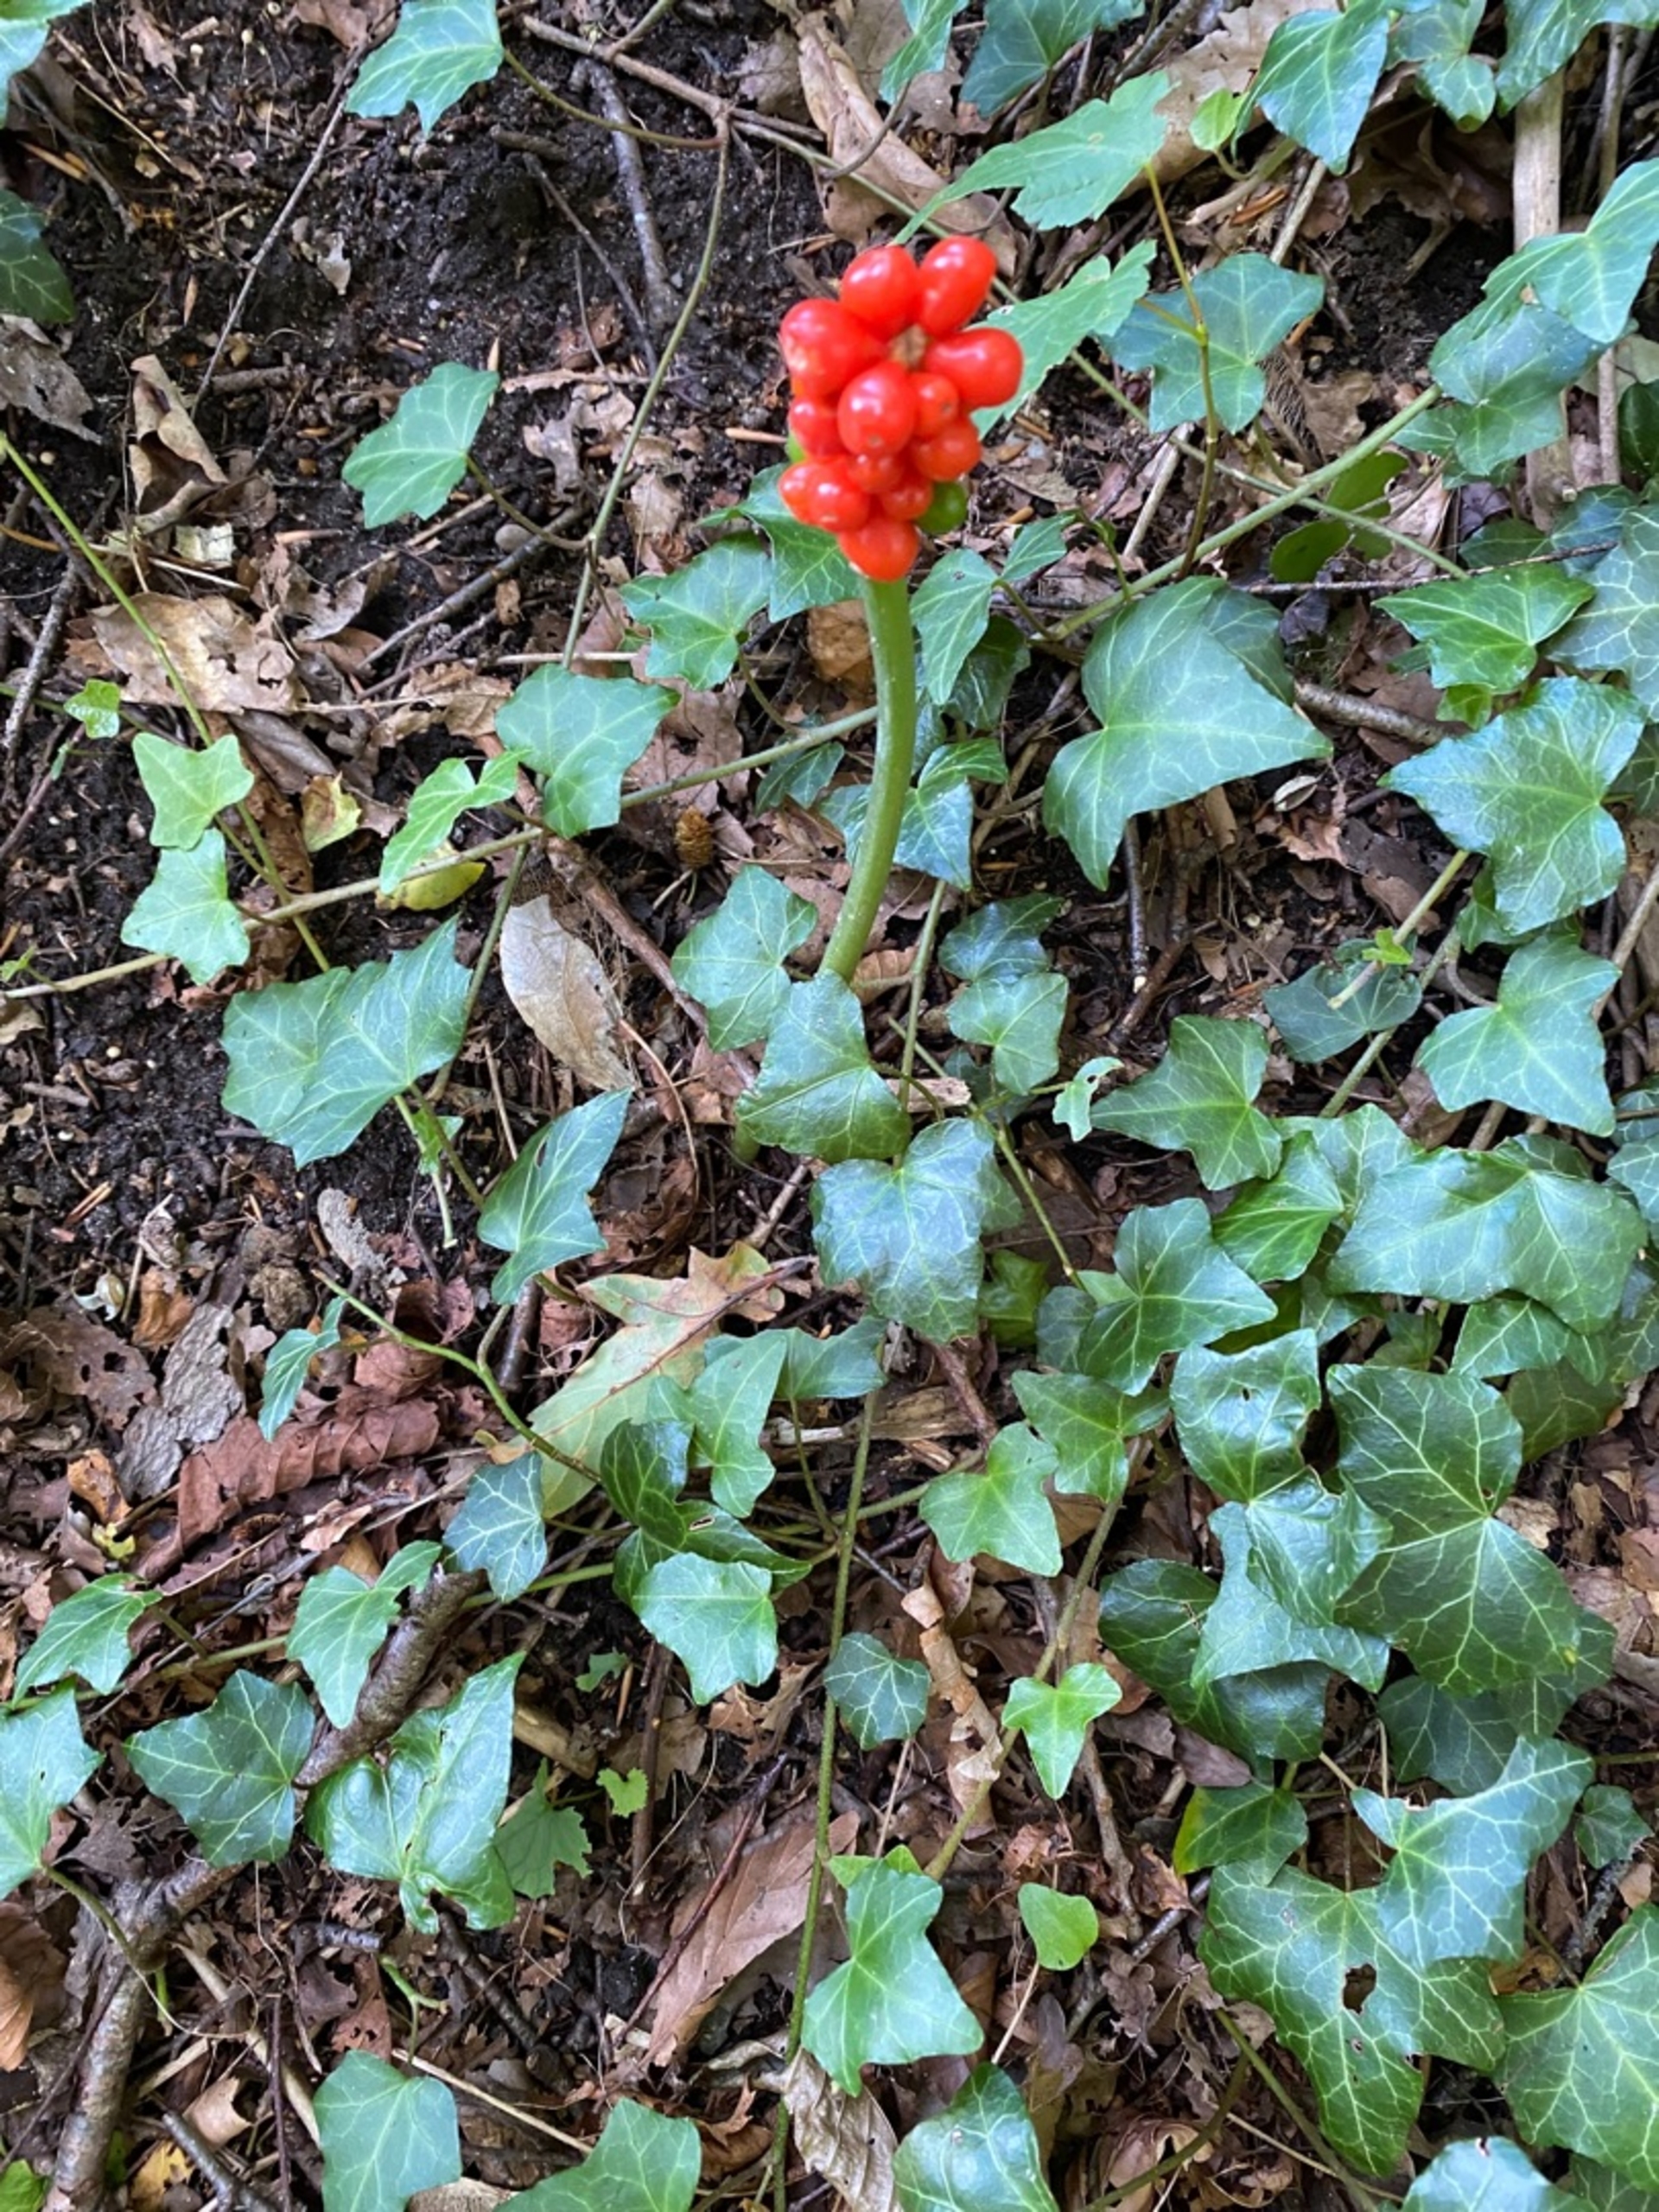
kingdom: Plantae
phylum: Tracheophyta
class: Liliopsida
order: Alismatales
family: Araceae
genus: Arum
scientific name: Arum
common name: Arumslægten
